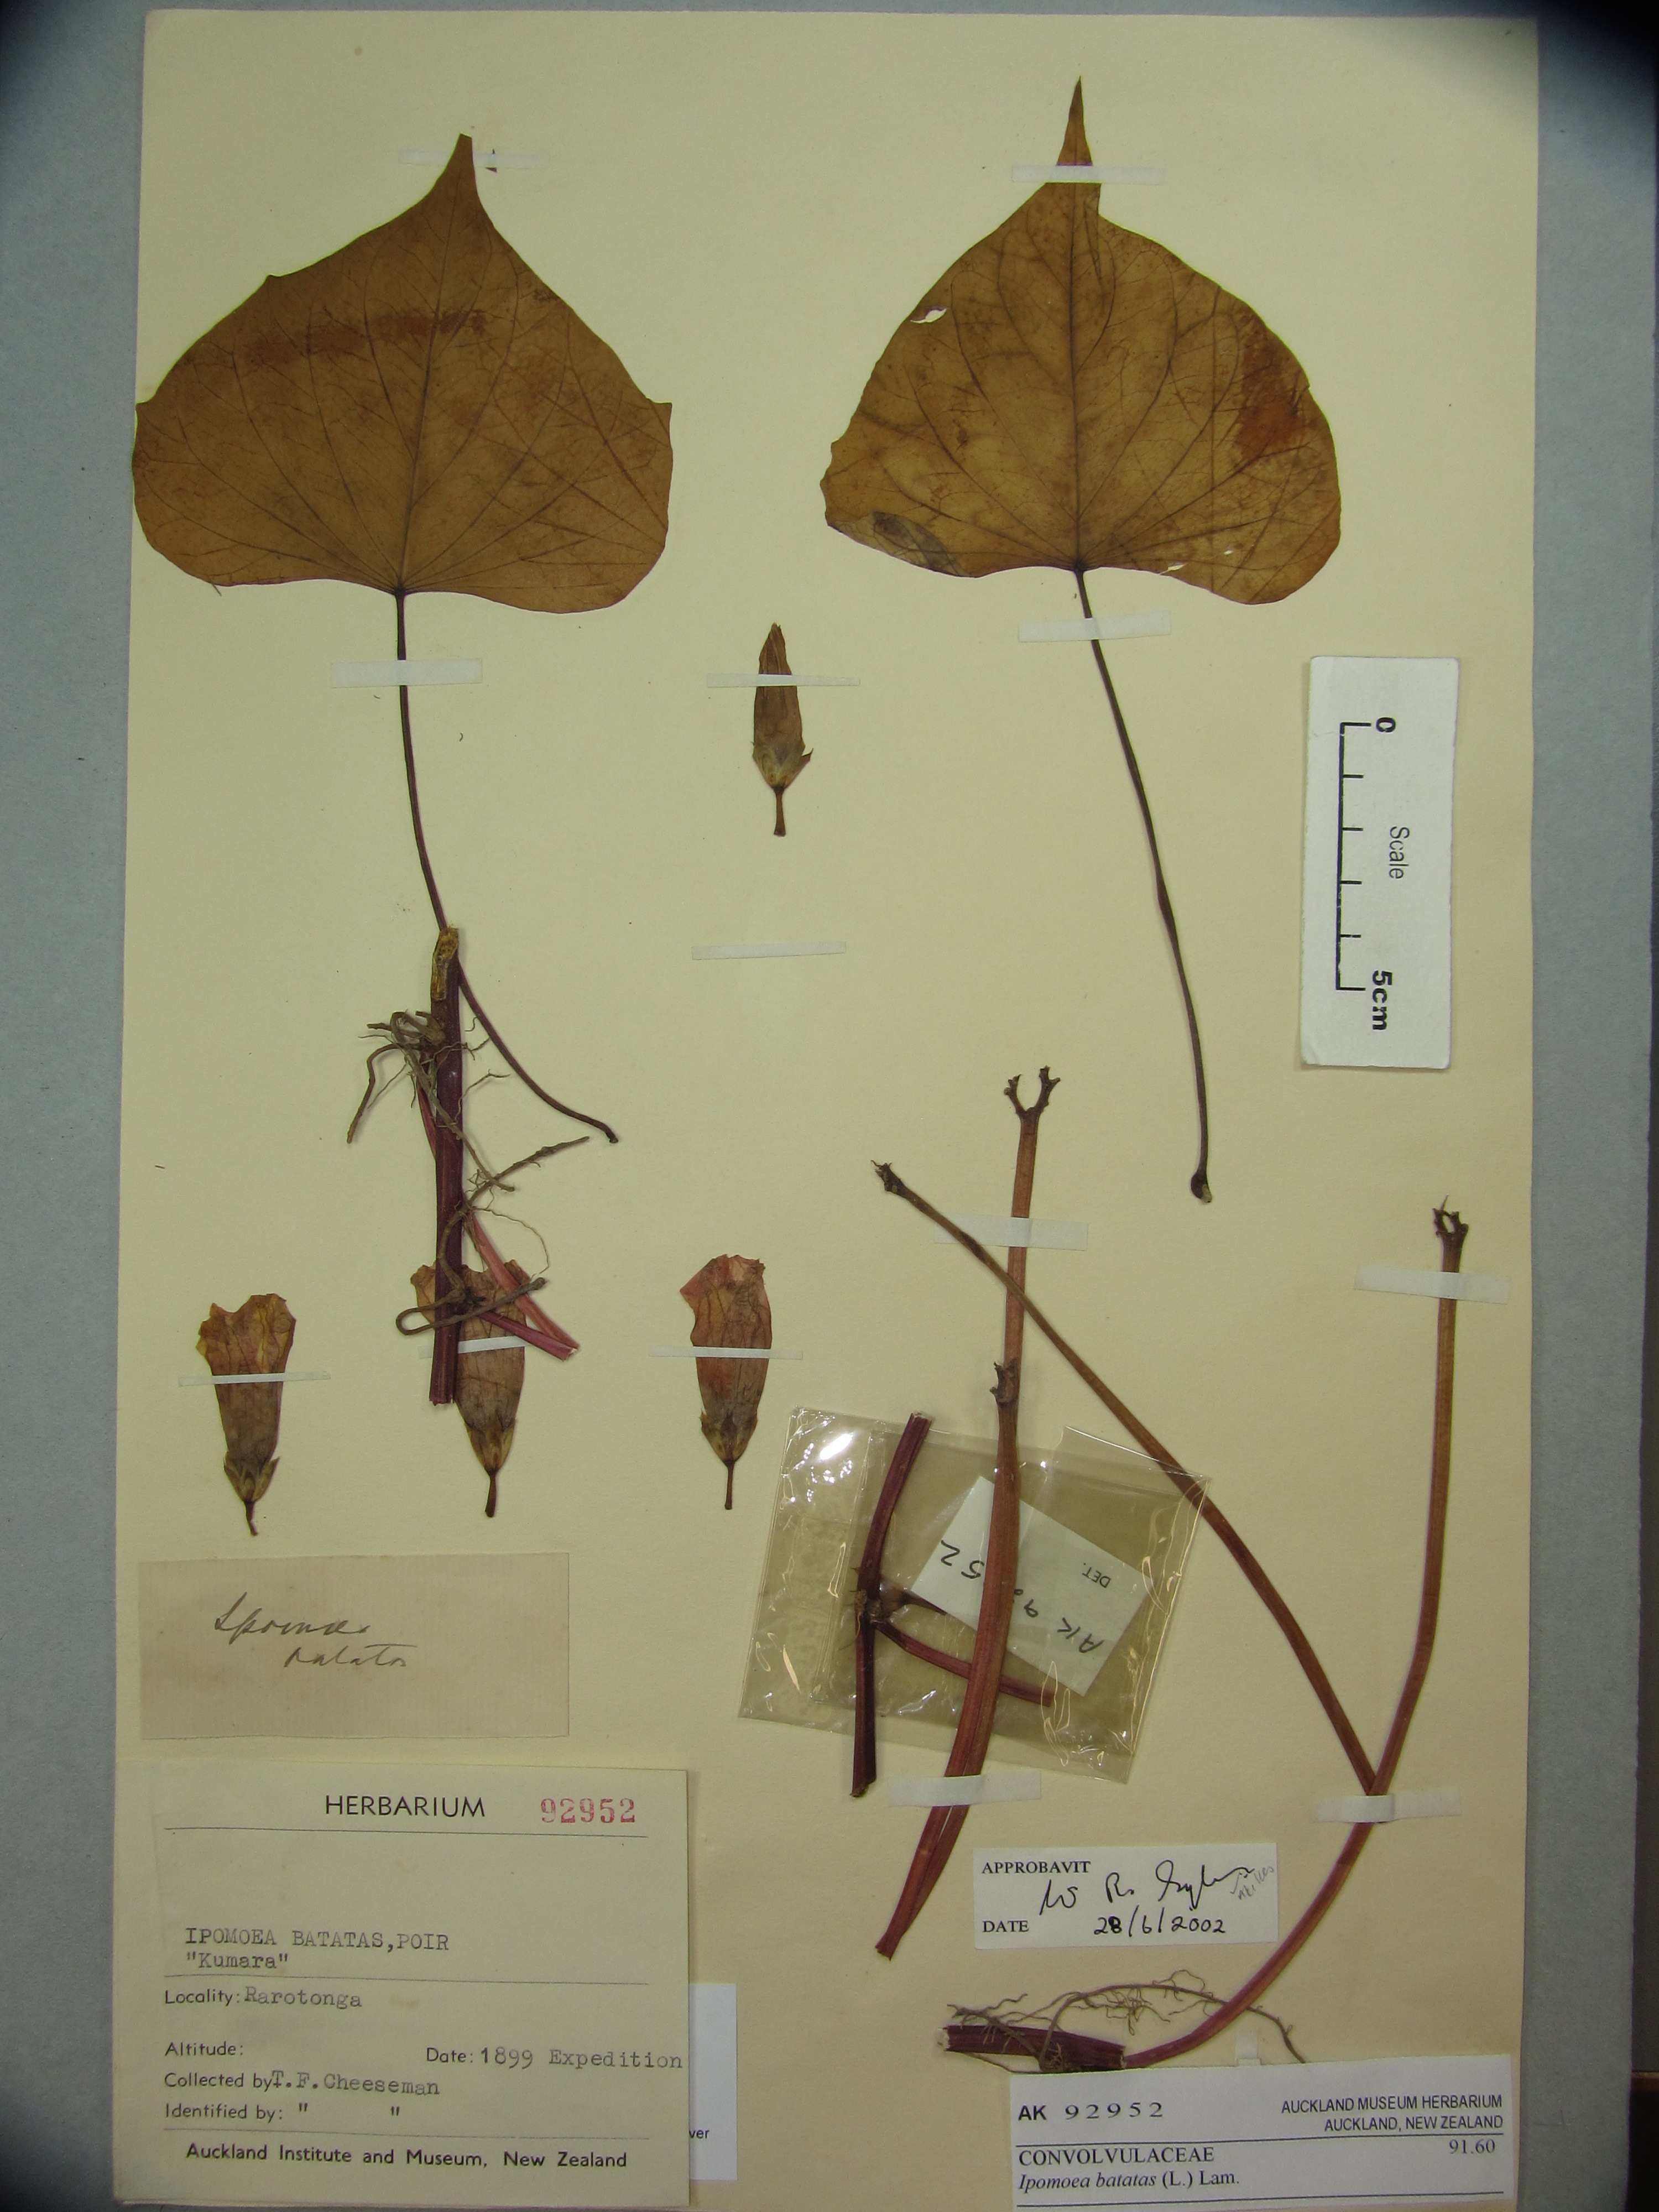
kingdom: Plantae
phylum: Tracheophyta
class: Magnoliopsida
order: Solanales
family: Convolvulaceae
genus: Ipomoea
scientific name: Ipomoea batatas
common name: Sweet-potato
